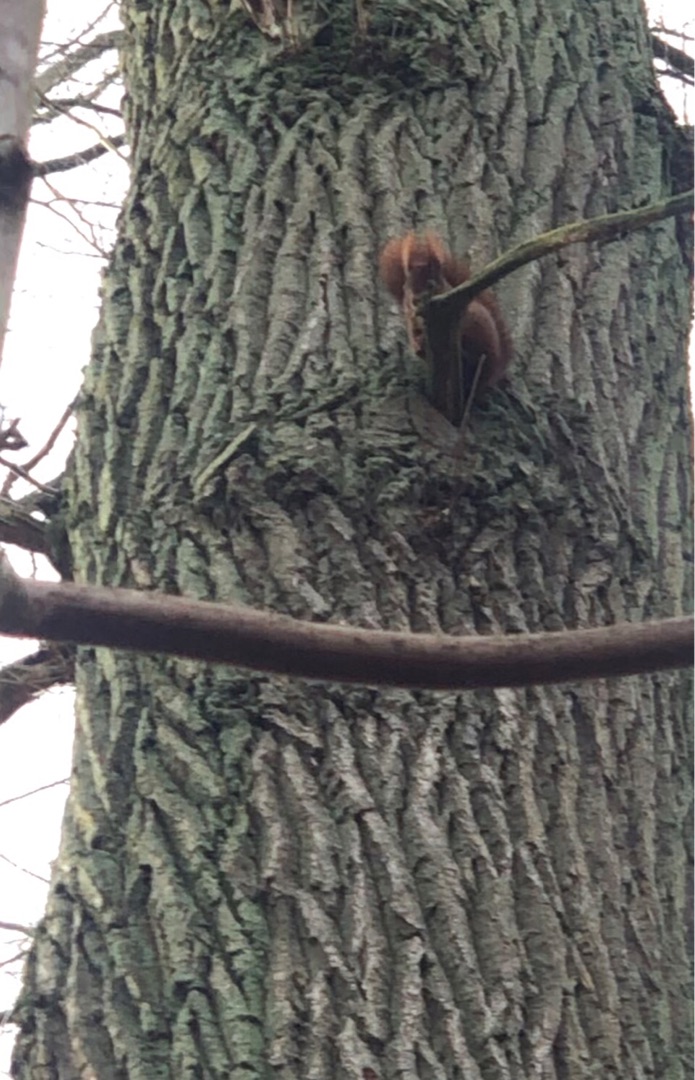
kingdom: Animalia
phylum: Chordata
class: Mammalia
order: Rodentia
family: Sciuridae
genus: Sciurus
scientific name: Sciurus vulgaris
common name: Egern
